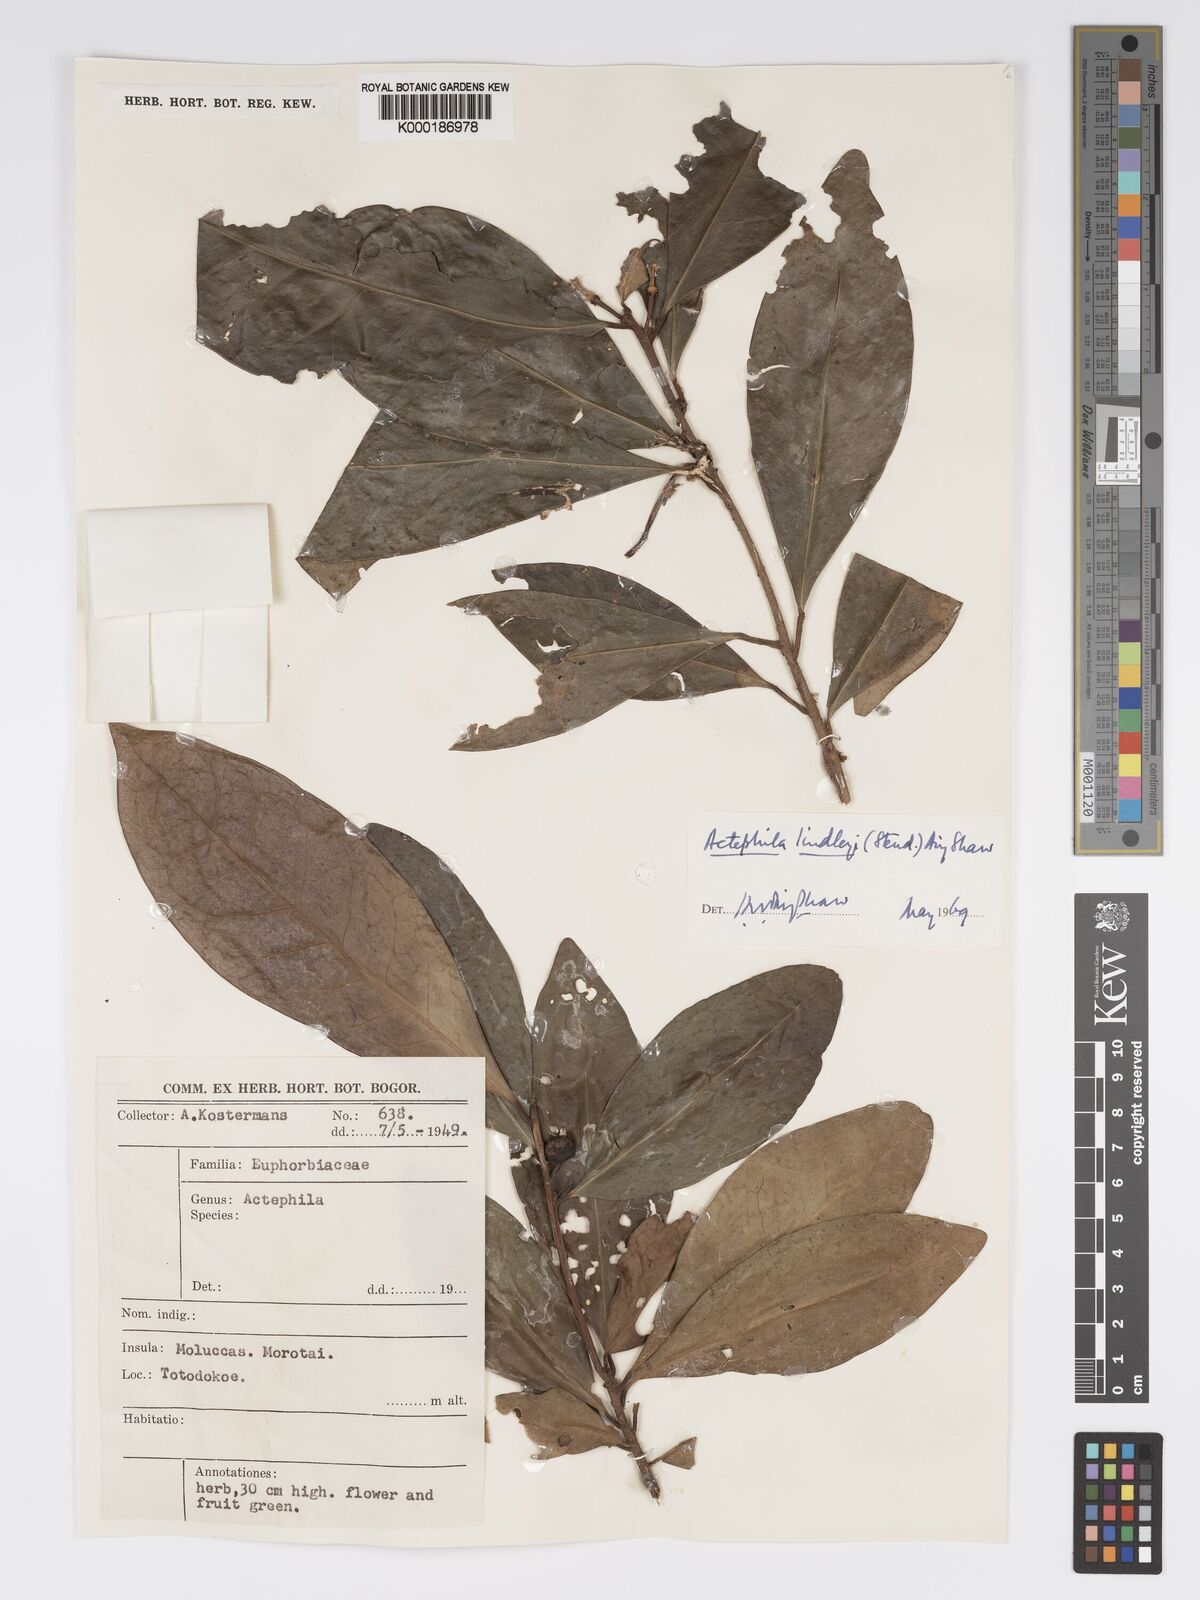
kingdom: Plantae
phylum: Tracheophyta
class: Magnoliopsida
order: Malpighiales
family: Phyllanthaceae
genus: Actephila
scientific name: Actephila lindleyi
